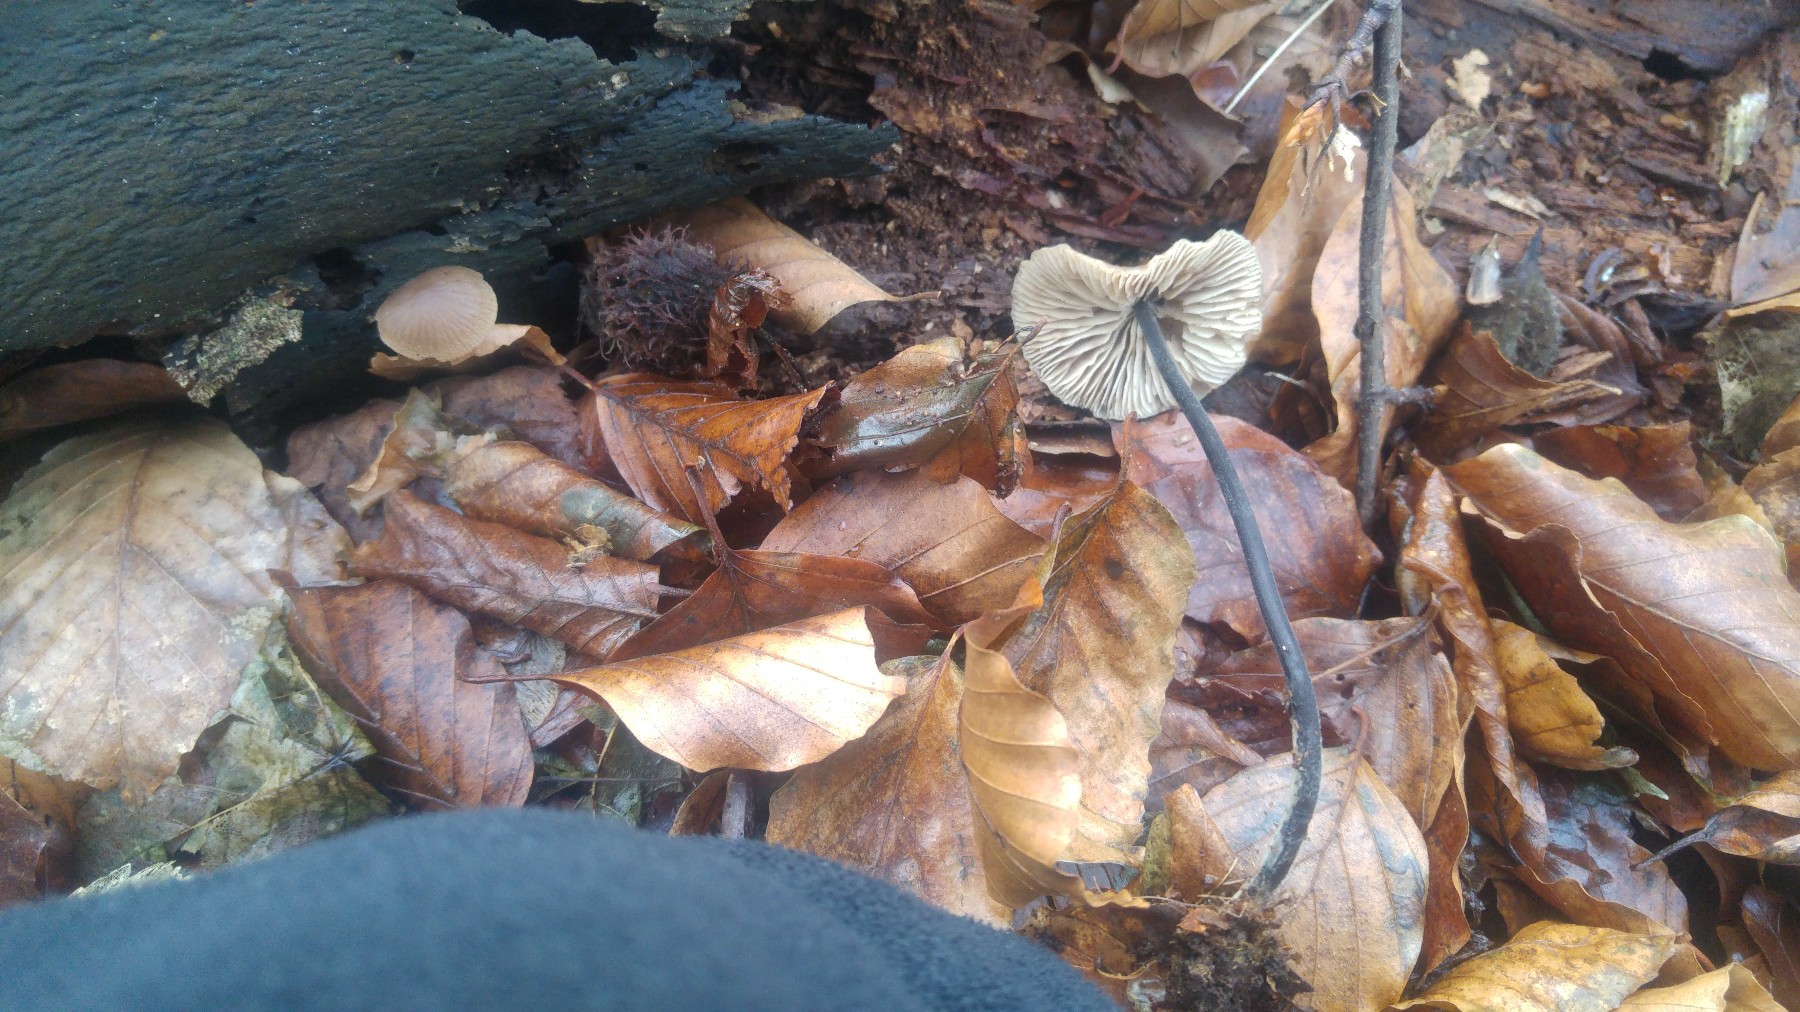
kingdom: Fungi
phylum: Basidiomycota
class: Agaricomycetes
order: Agaricales
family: Omphalotaceae
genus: Mycetinis
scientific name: Mycetinis alliaceus
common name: stor løghat
